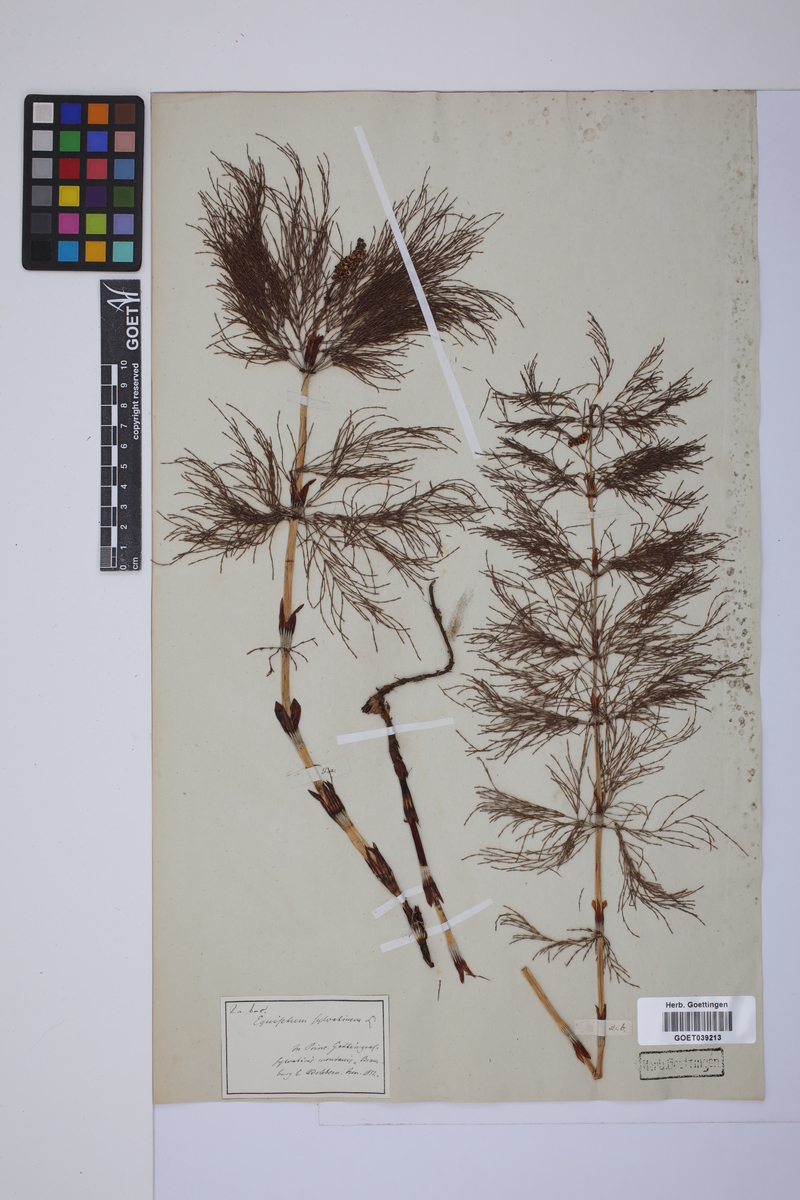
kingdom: Plantae
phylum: Tracheophyta
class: Polypodiopsida
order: Equisetales
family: Equisetaceae
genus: Equisetum
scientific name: Equisetum sylvaticum
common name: Wood horsetail
